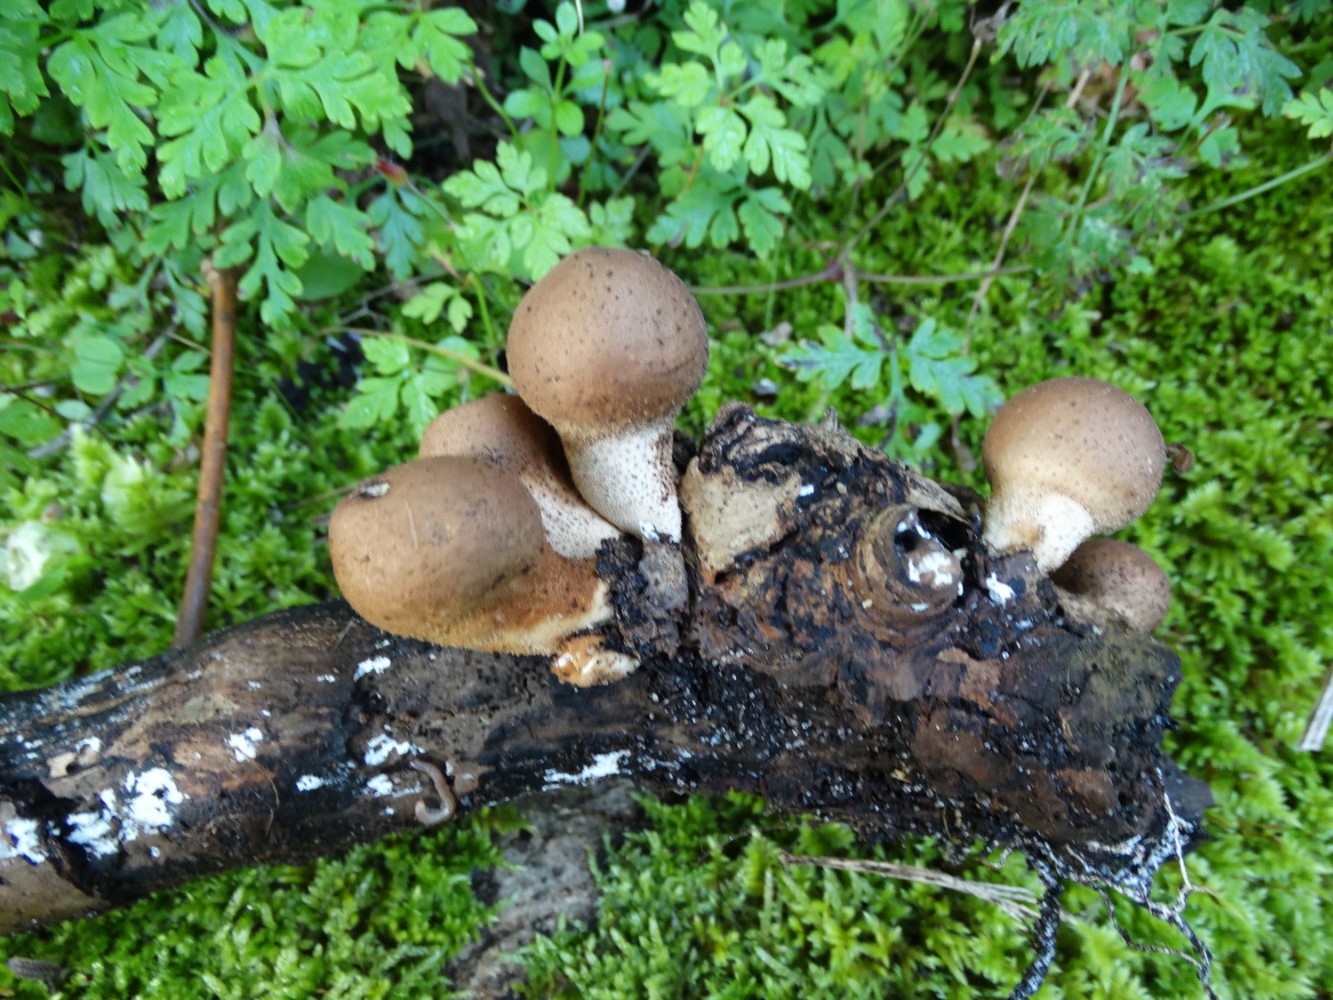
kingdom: Fungi
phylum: Basidiomycota
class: Agaricomycetes
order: Agaricales
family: Lycoperdaceae
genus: Apioperdon
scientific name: Apioperdon pyriforme
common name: pære-støvbold
